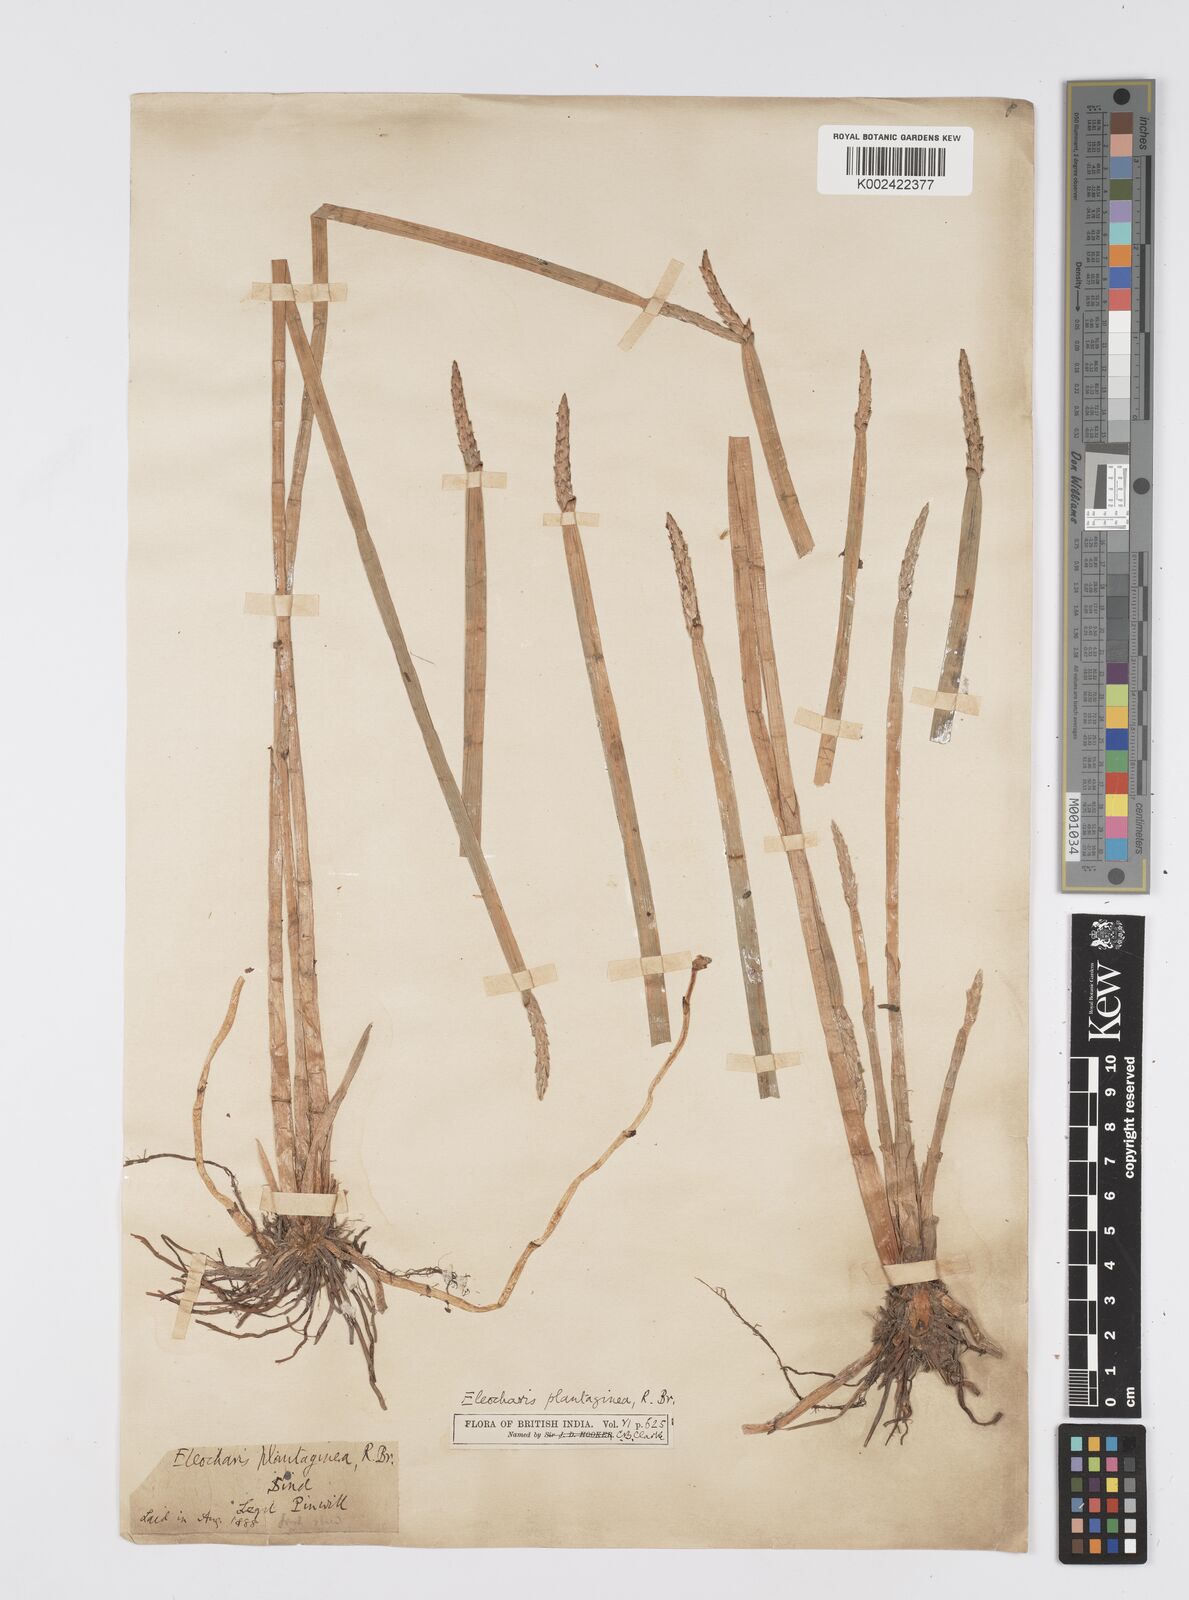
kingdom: Plantae
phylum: Tracheophyta
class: Liliopsida
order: Poales
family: Cyperaceae
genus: Eleocharis
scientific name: Eleocharis dulcis
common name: Chinese water chestnut
